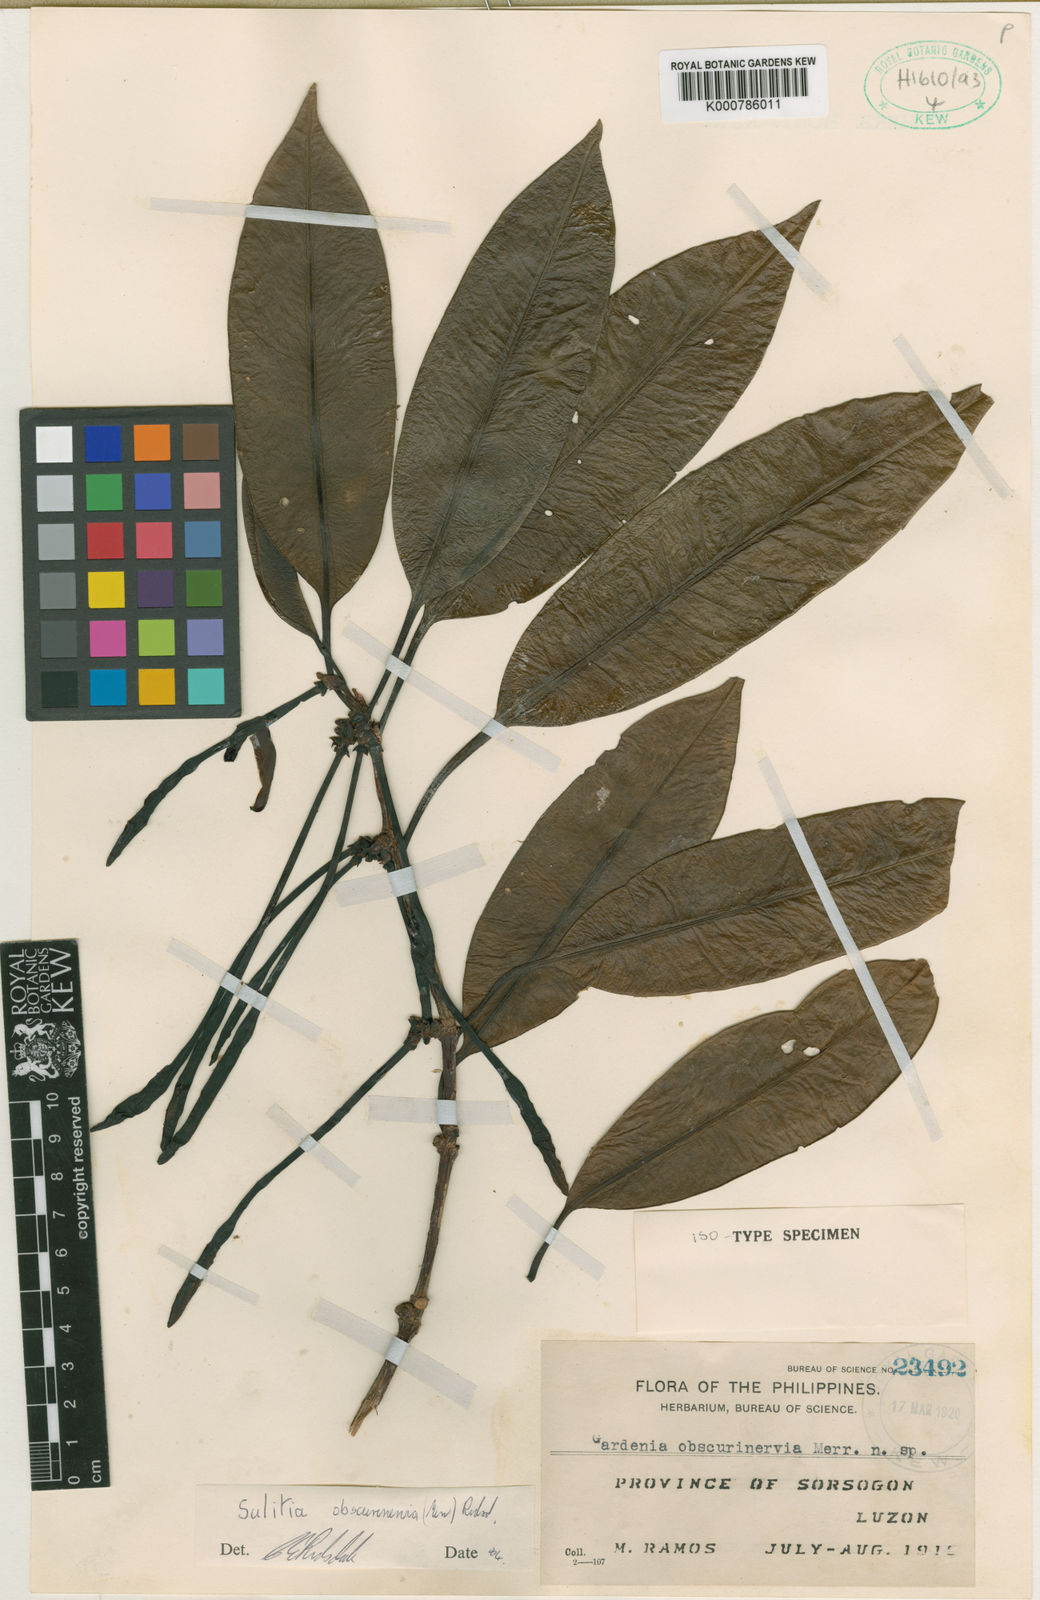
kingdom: Plantae
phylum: Tracheophyta
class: Magnoliopsida
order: Gentianales
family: Rubiaceae
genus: Atractocarpus
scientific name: Atractocarpus obscurinervius
